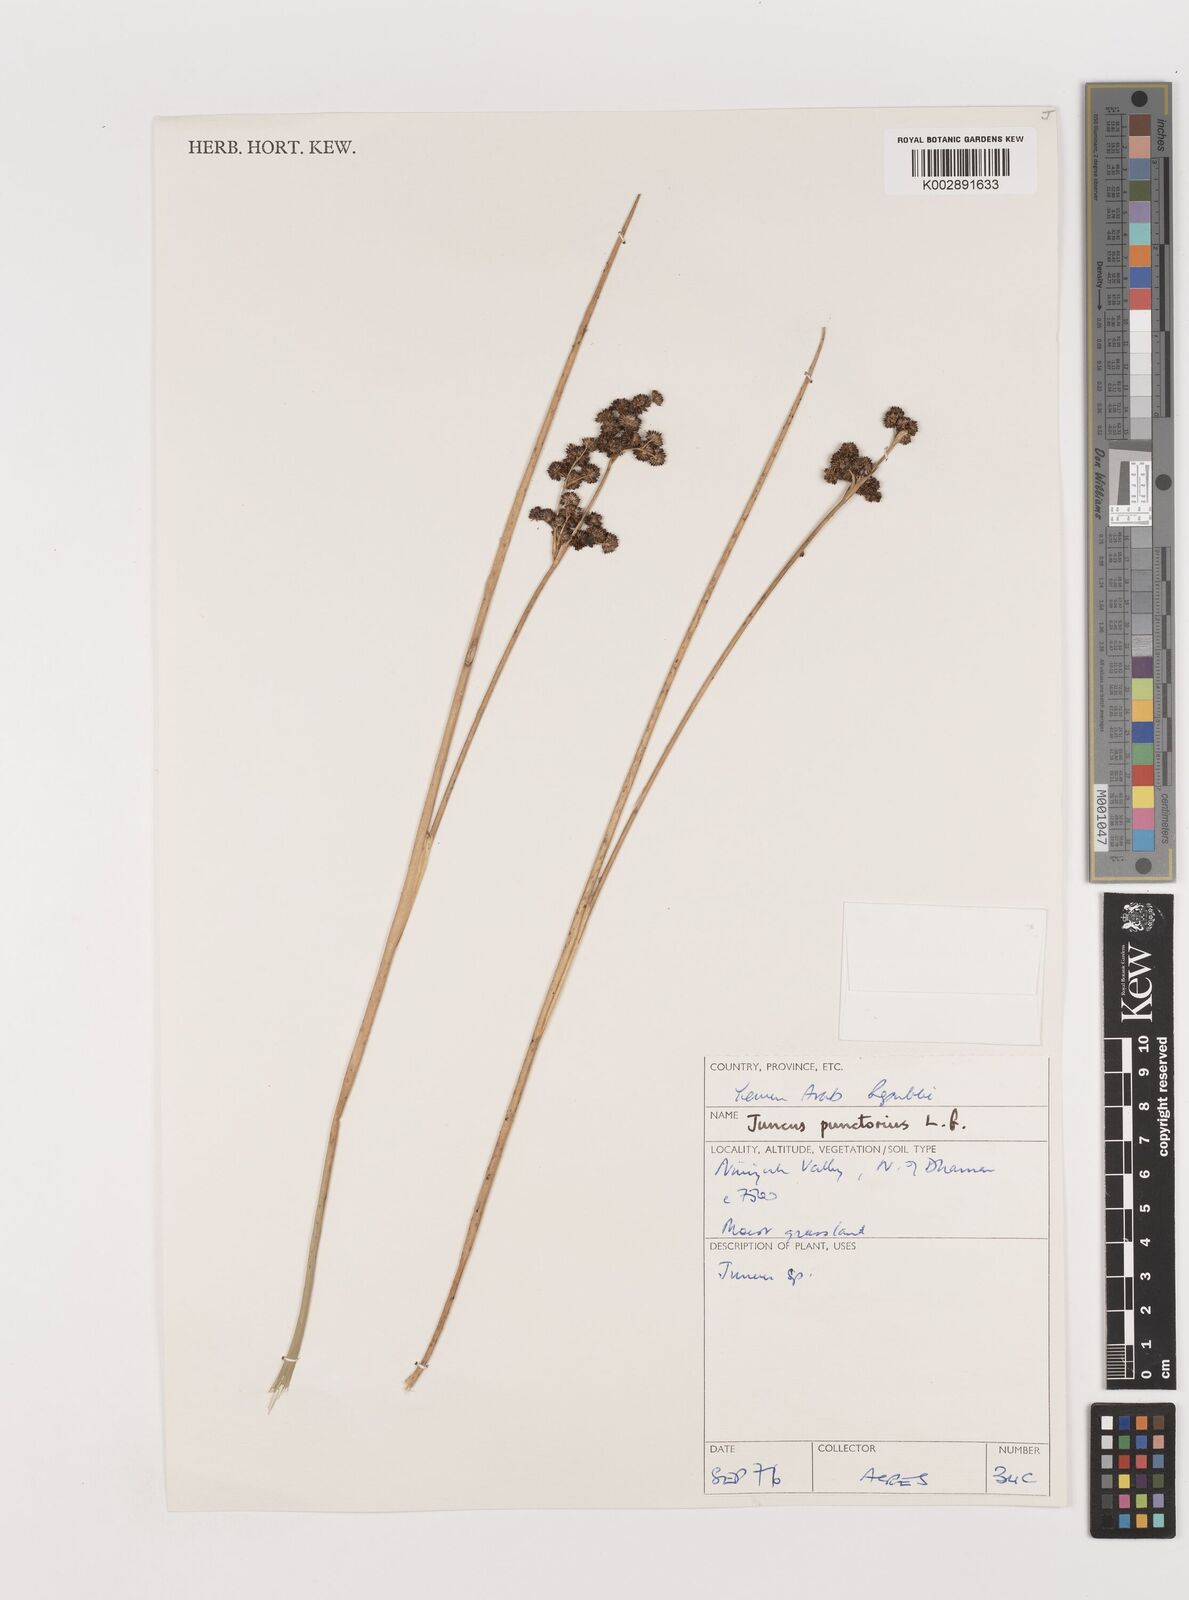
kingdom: Plantae
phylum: Tracheophyta
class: Liliopsida
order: Poales
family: Juncaceae
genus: Juncus
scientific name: Juncus punctorius
